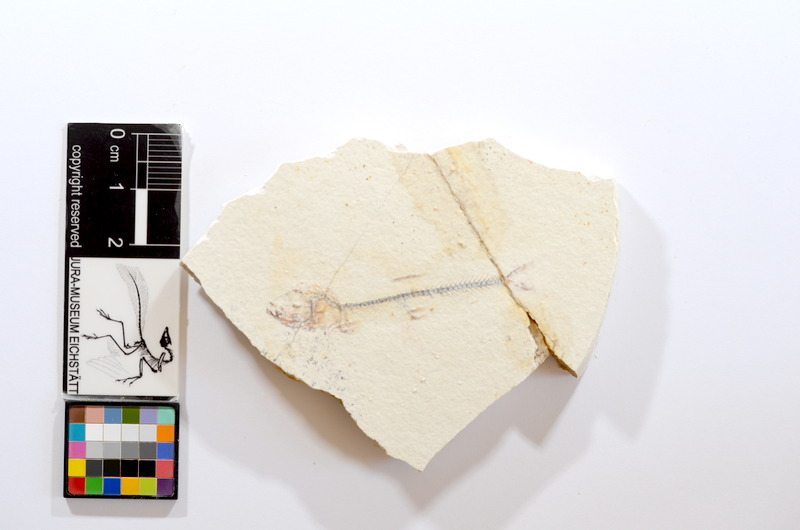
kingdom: Animalia
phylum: Chordata
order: Salmoniformes
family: Orthogonikleithridae
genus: Orthogonikleithrus
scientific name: Orthogonikleithrus hoelli
